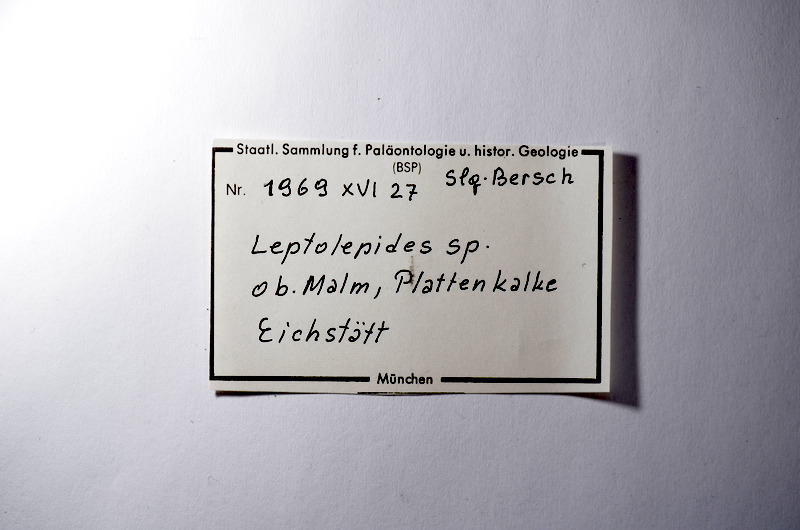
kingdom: Animalia
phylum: Chordata
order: Salmoniformes
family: Orthogonikleithridae
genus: Leptolepides
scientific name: Leptolepides
